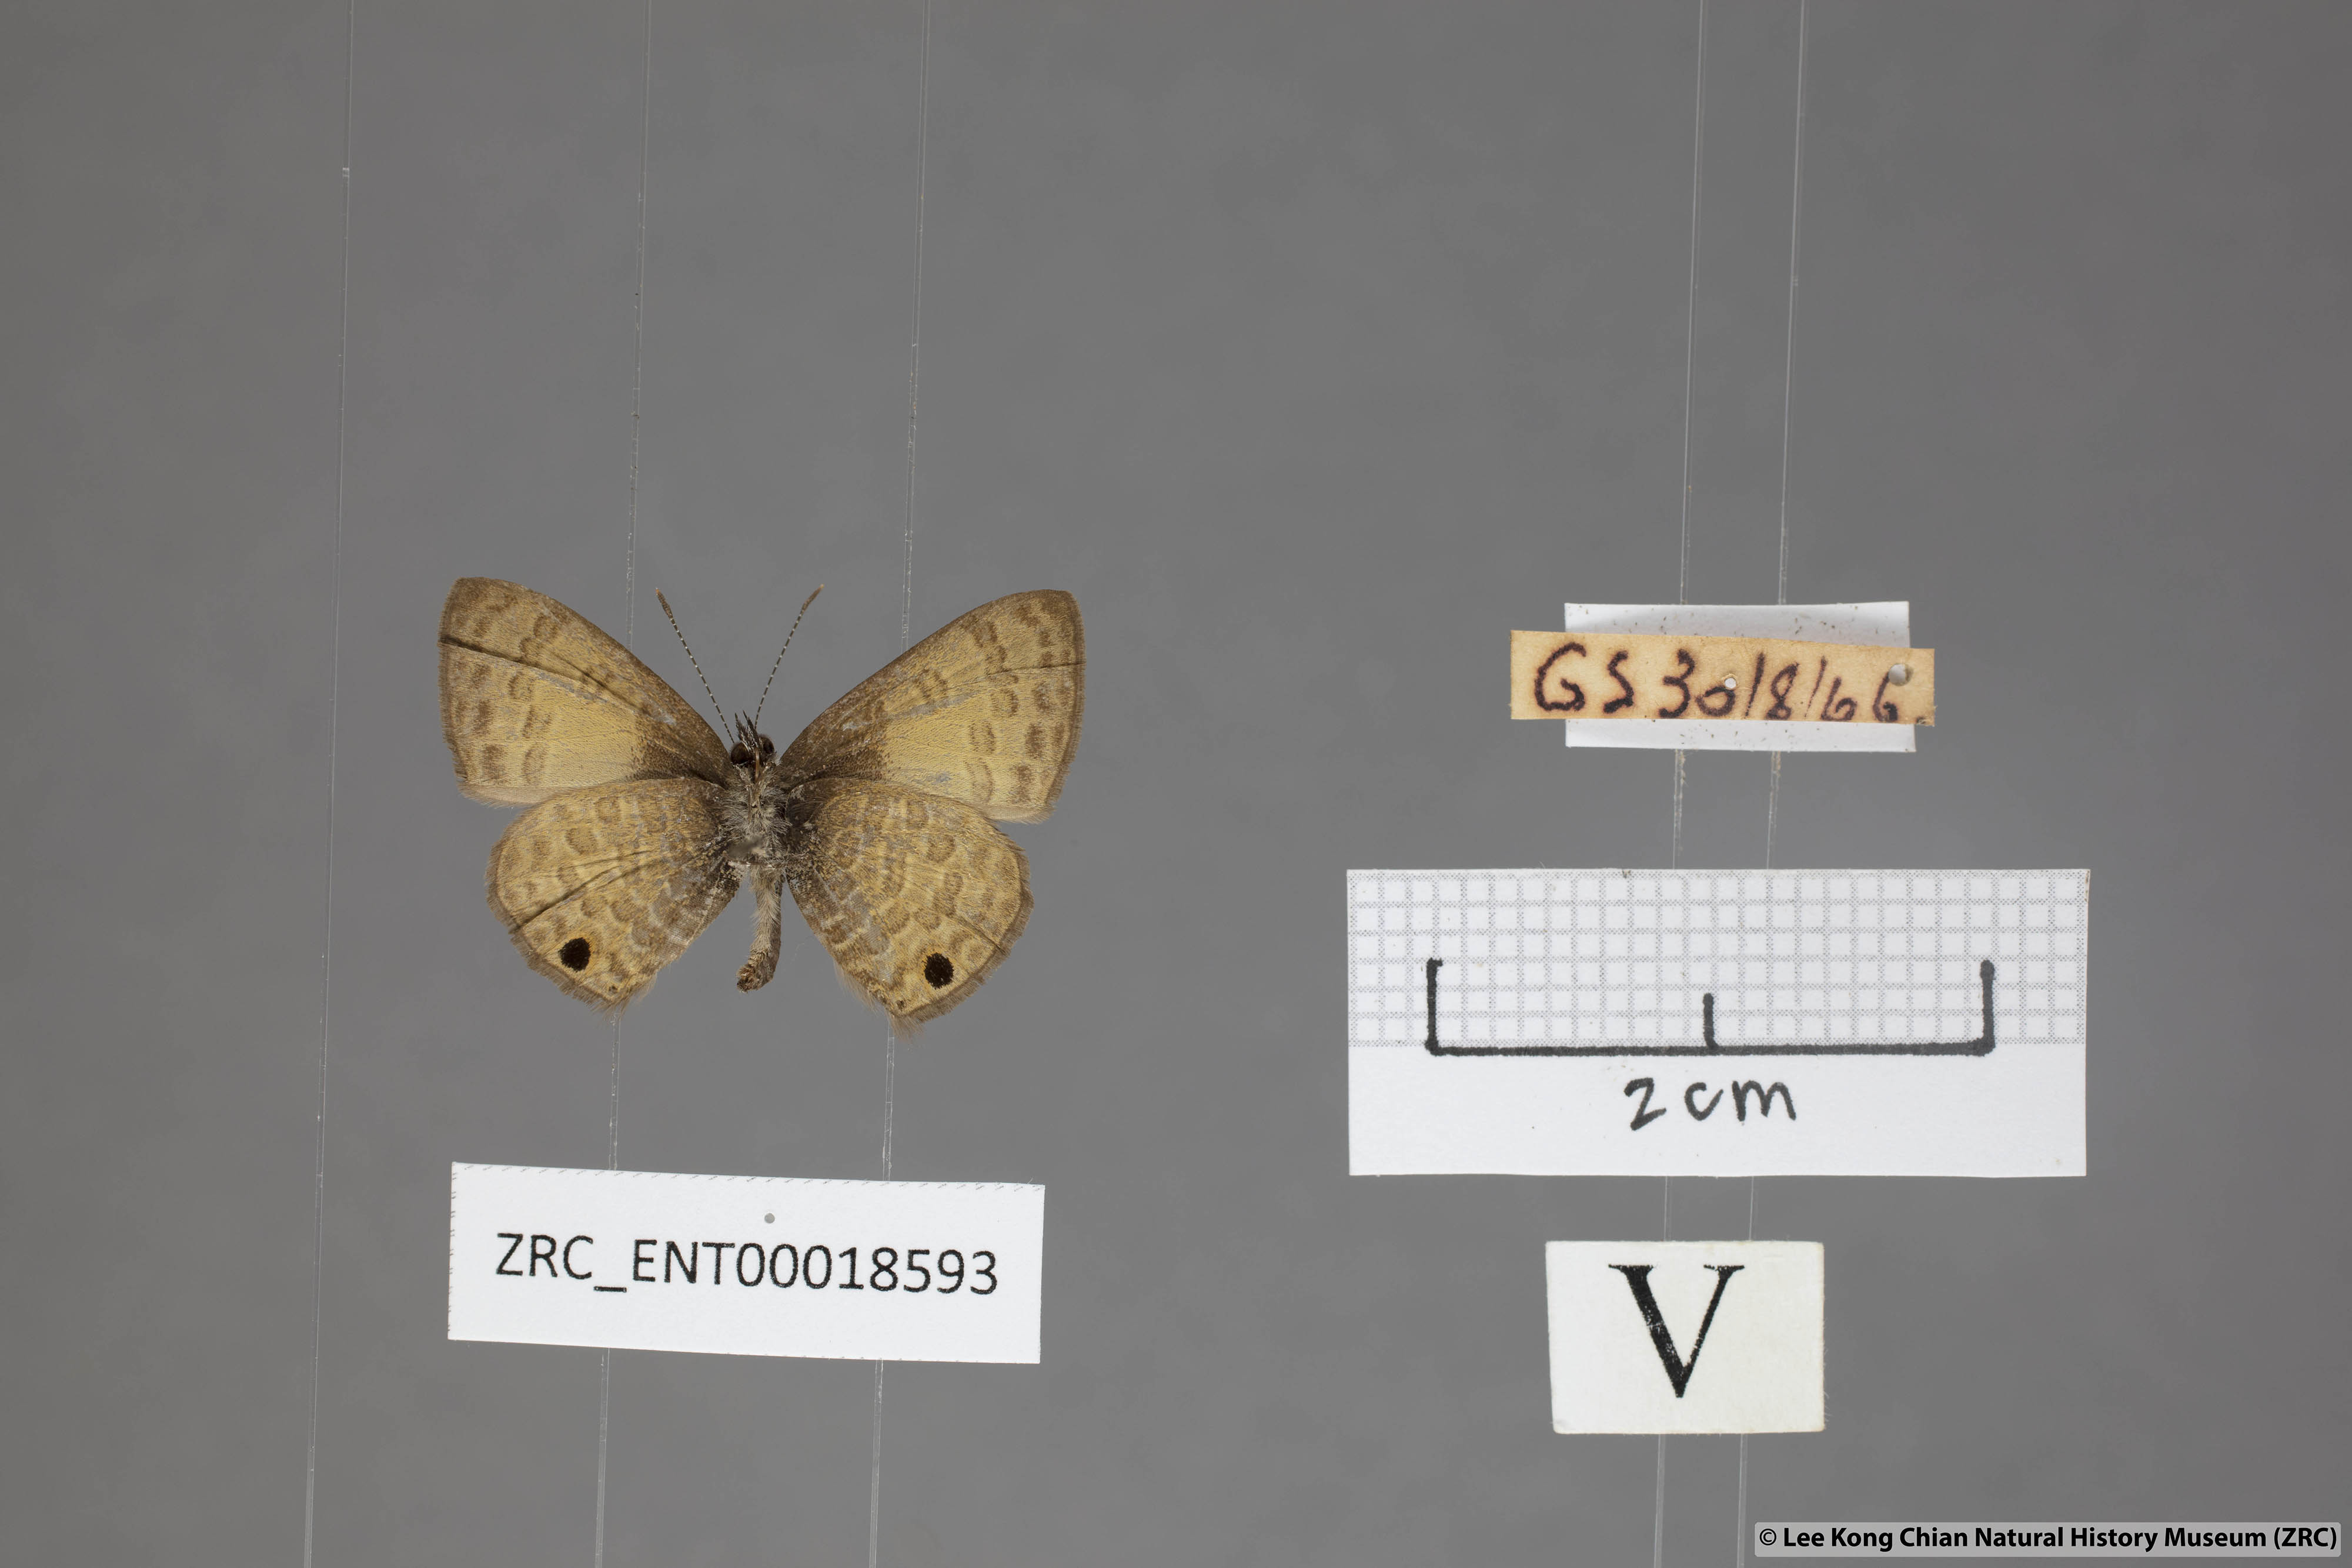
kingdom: Animalia
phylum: Arthropoda
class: Insecta
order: Lepidoptera
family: Lycaenidae
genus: Prosotas
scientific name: Prosotas gracilis
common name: Dark-based lineblue
